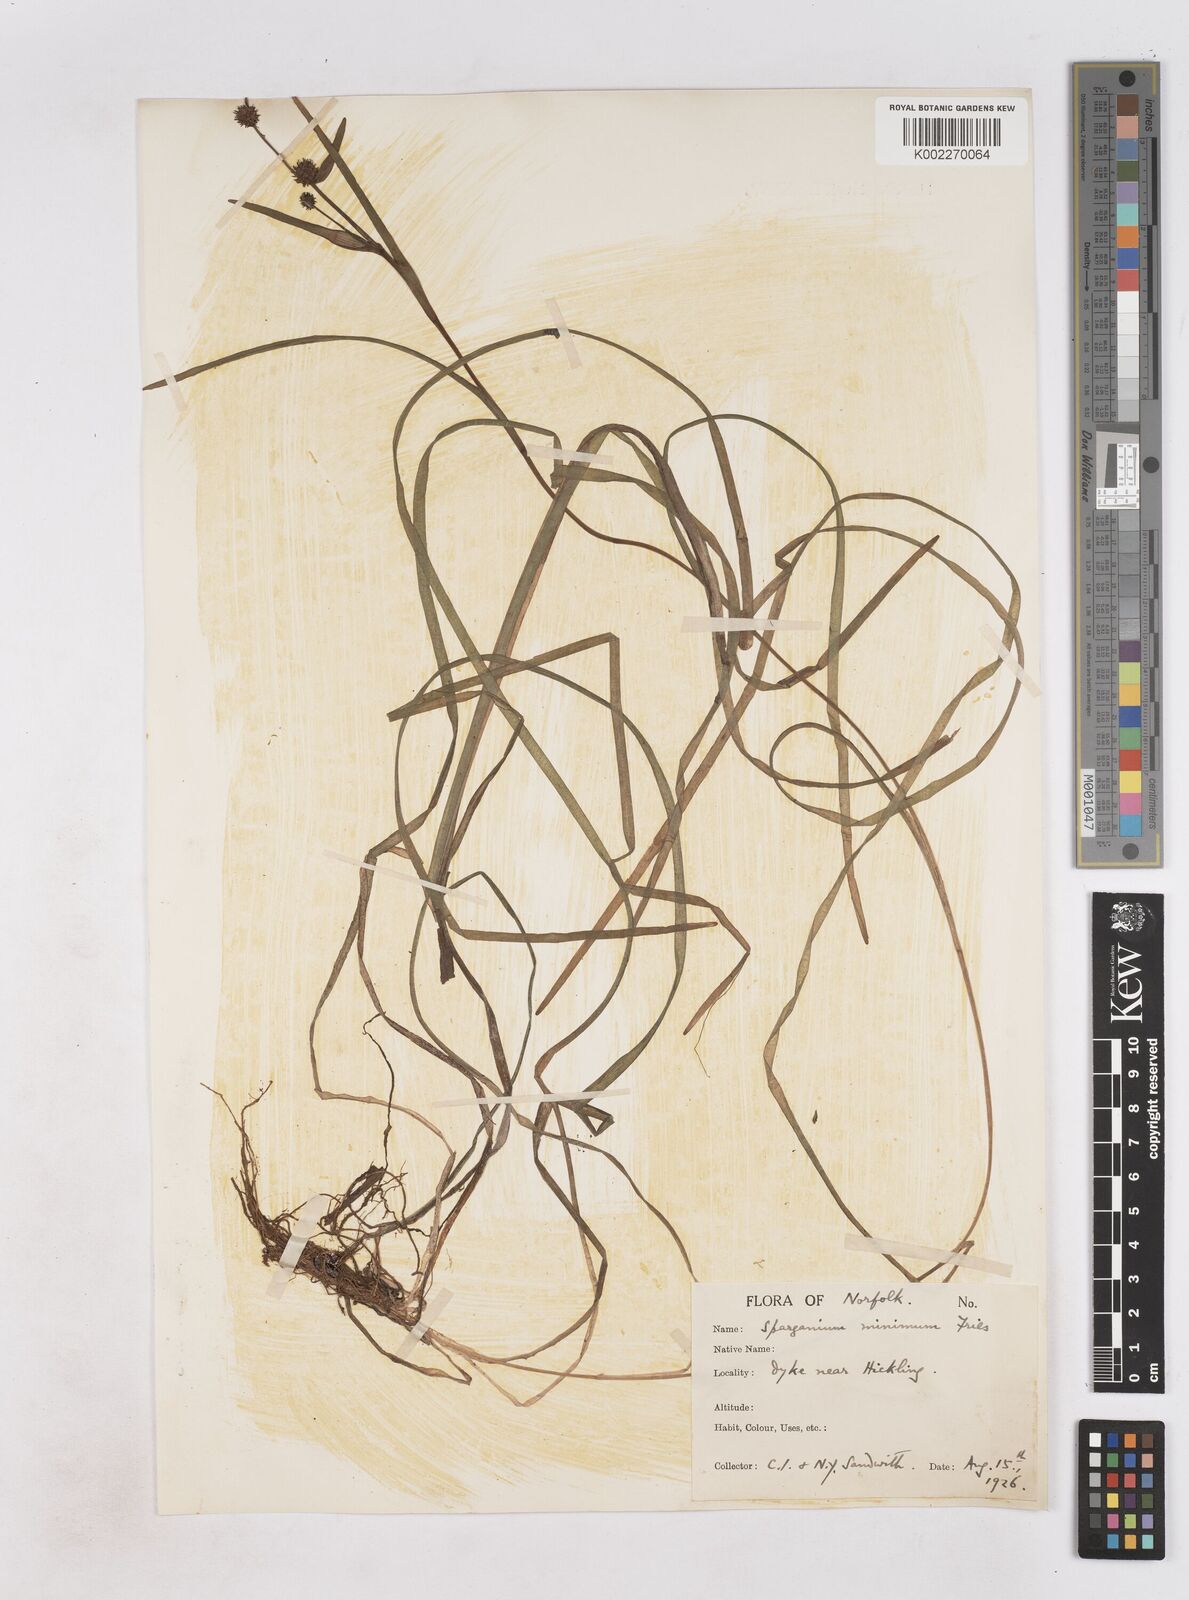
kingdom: Plantae
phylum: Tracheophyta
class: Liliopsida
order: Poales
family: Typhaceae
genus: Sparganium
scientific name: Sparganium natans
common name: Least bur-reed
